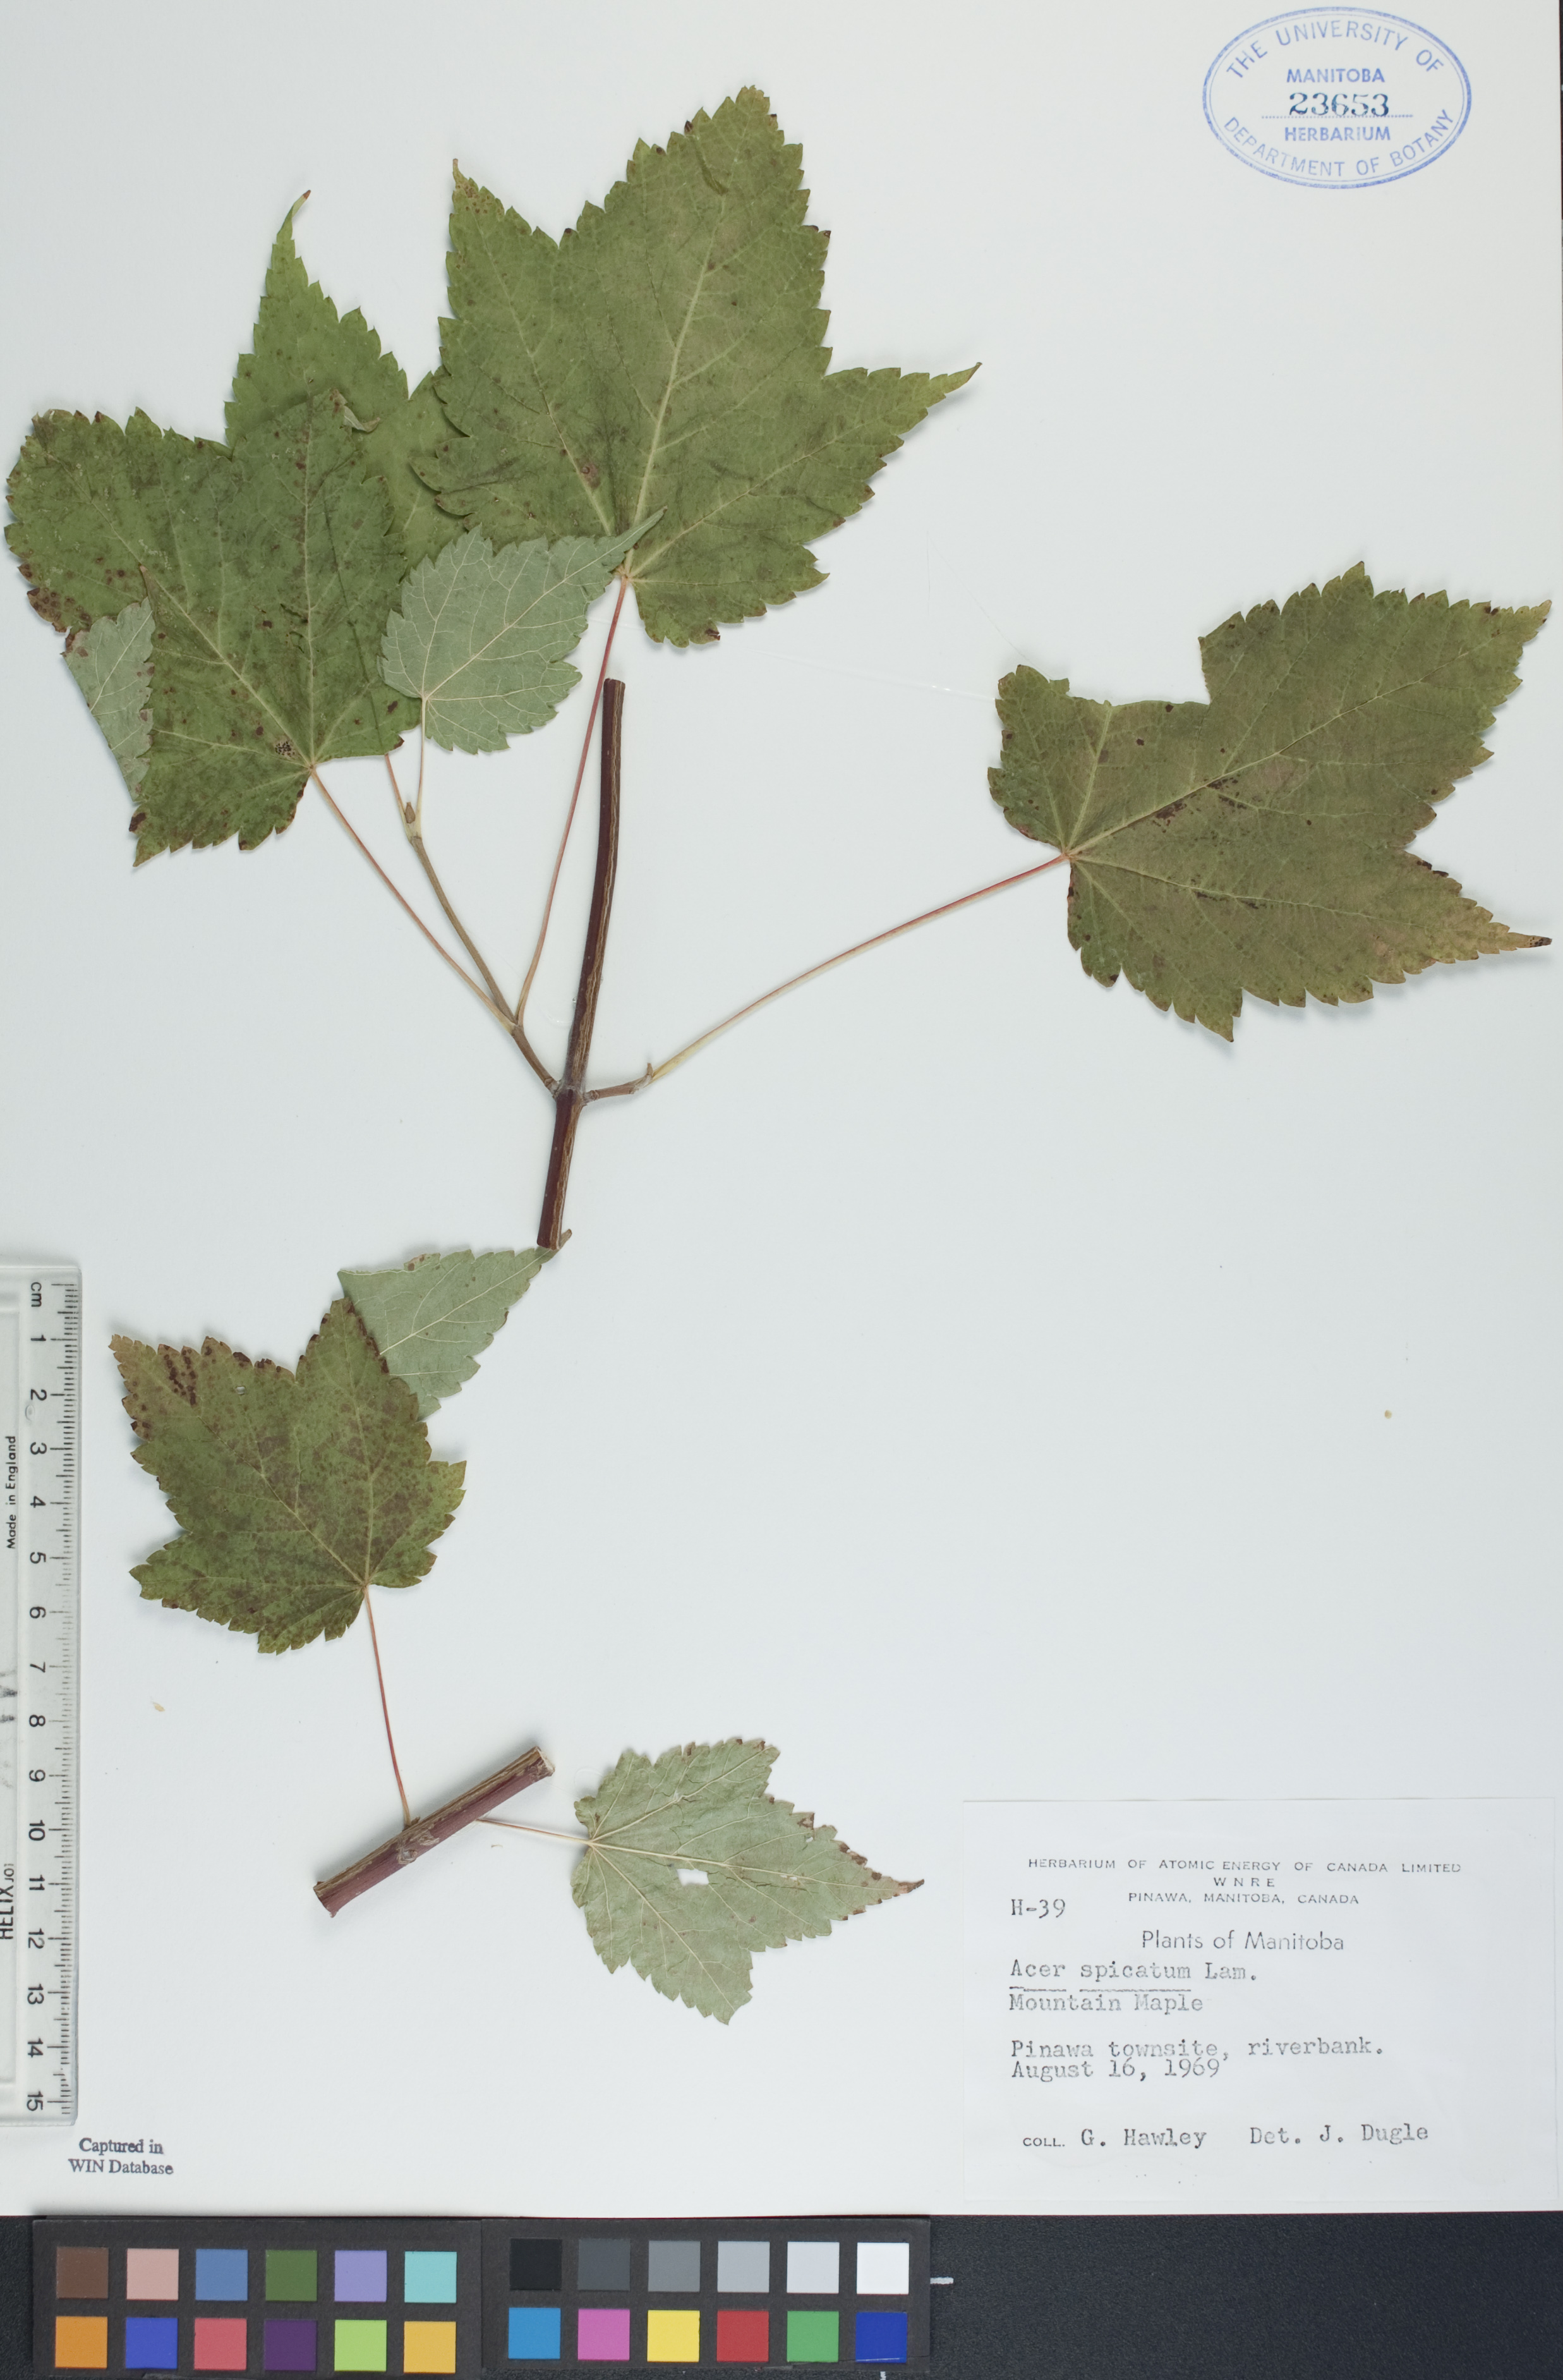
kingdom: Plantae
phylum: Tracheophyta
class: Magnoliopsida
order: Sapindales
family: Sapindaceae
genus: Acer
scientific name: Acer spicatum
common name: Mountain maple
